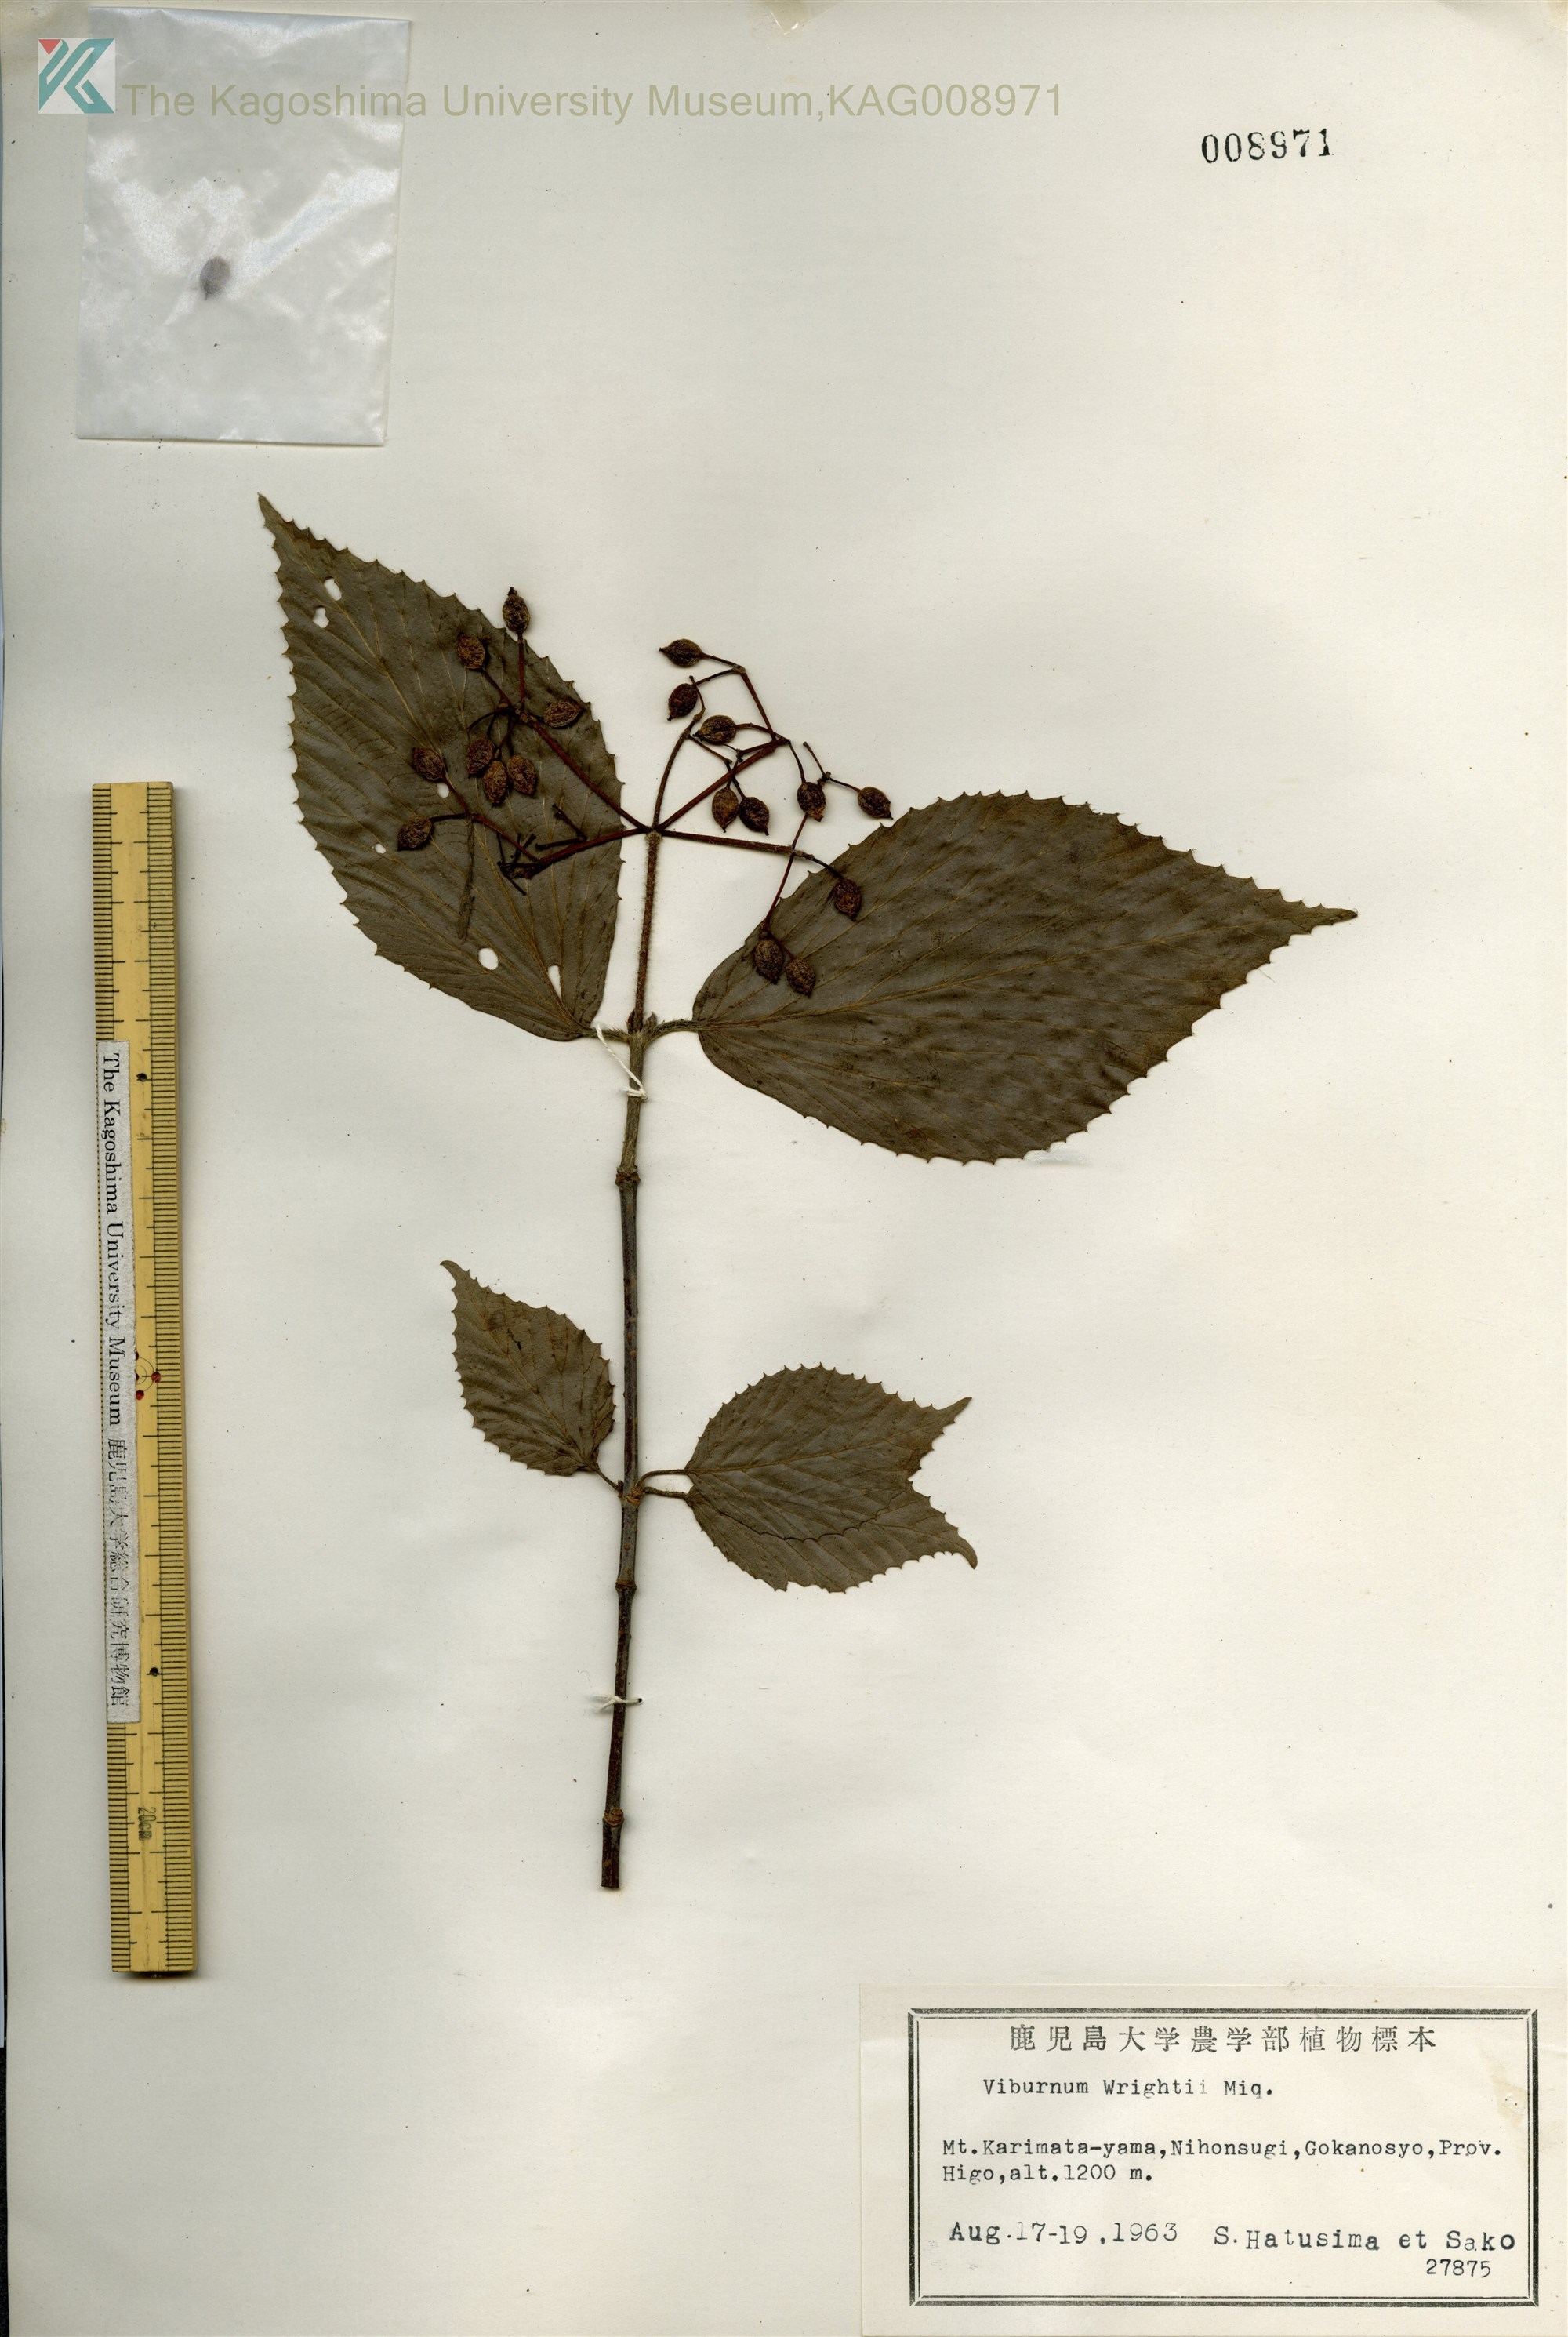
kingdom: Plantae
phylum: Tracheophyta
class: Magnoliopsida
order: Dipsacales
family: Viburnaceae
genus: Viburnum
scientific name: Viburnum wrightii
